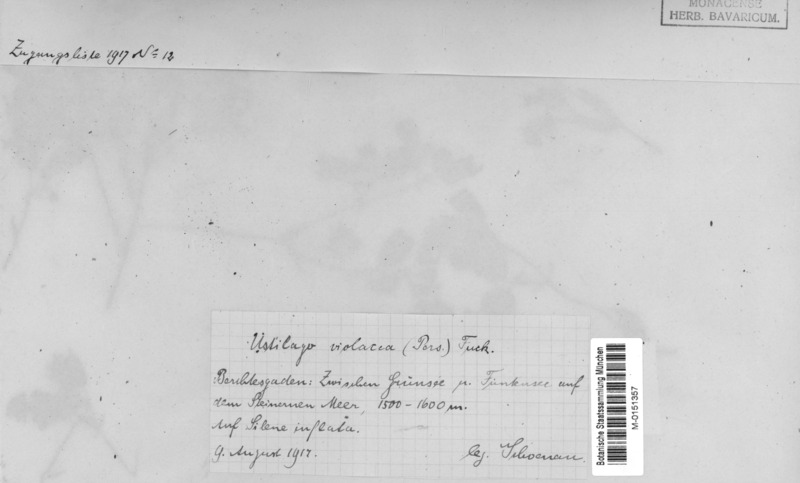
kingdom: Fungi
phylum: Basidiomycota
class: Microbotryomycetes
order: Microbotryales
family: Microbotryaceae
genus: Microbotryum
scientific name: Microbotryum violaceum
